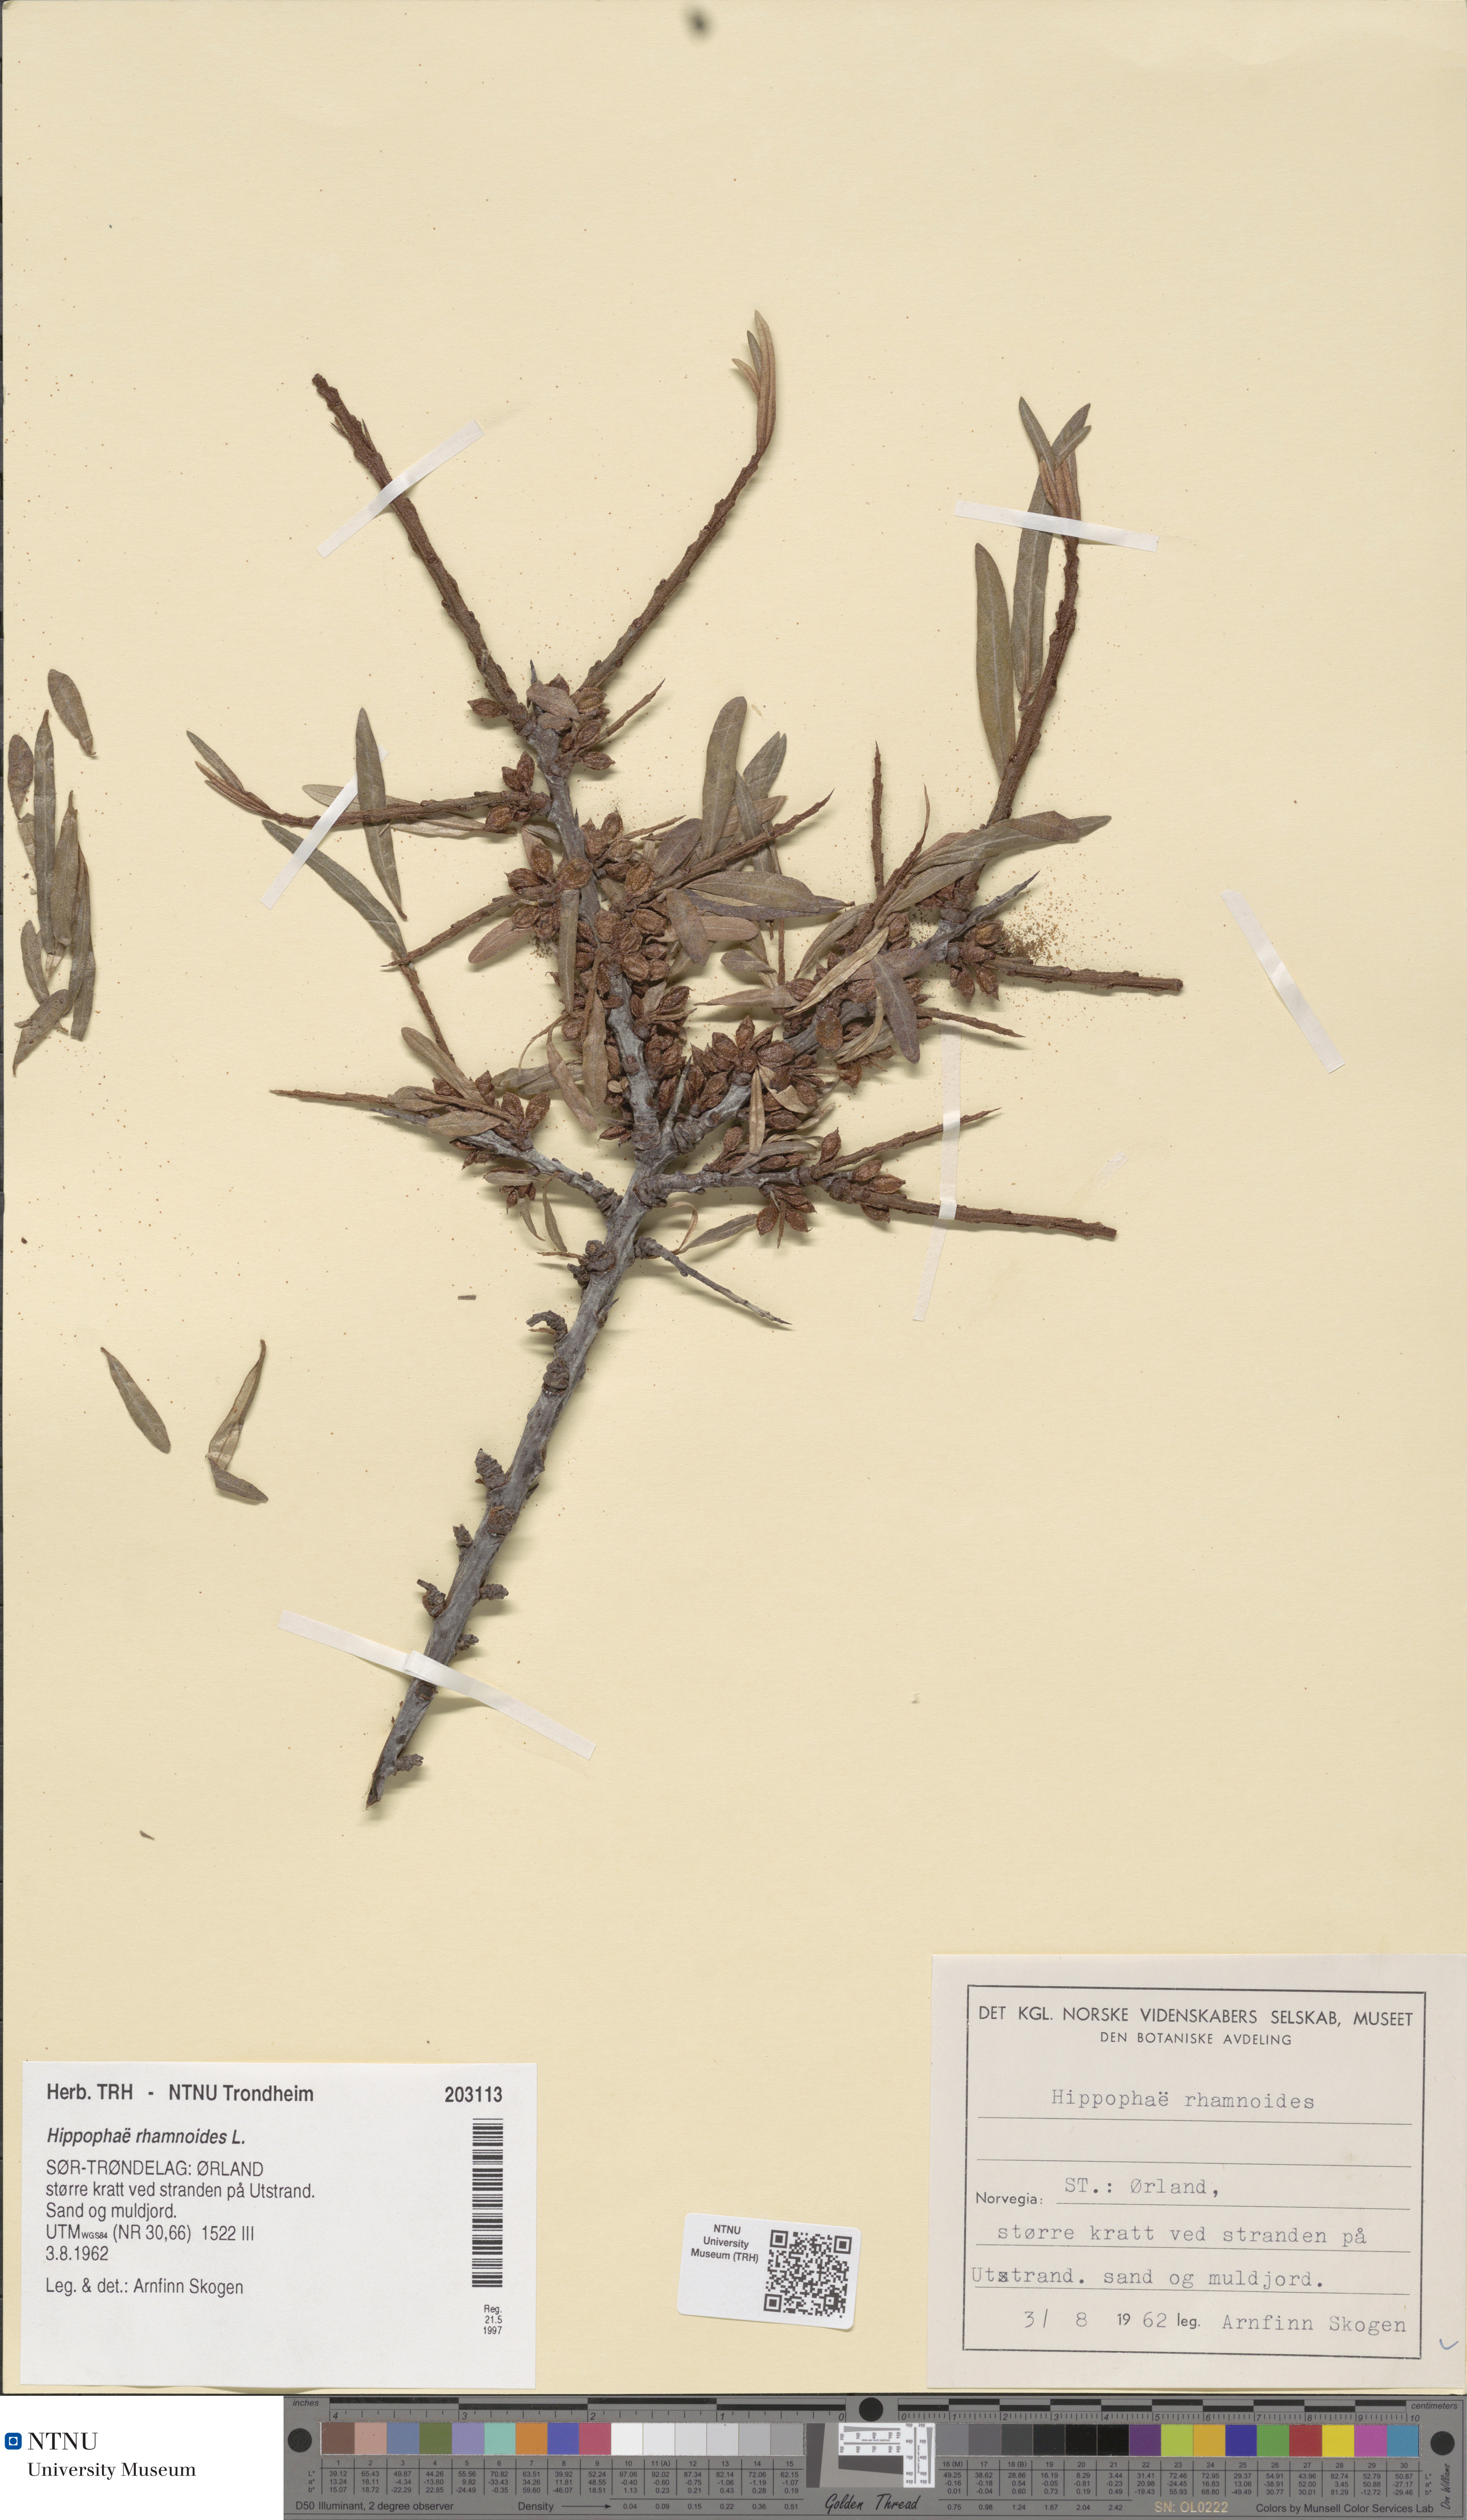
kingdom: Plantae
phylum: Tracheophyta
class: Magnoliopsida
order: Rosales
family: Elaeagnaceae
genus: Hippophae
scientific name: Hippophae rhamnoides
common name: Sea-buckthorn
